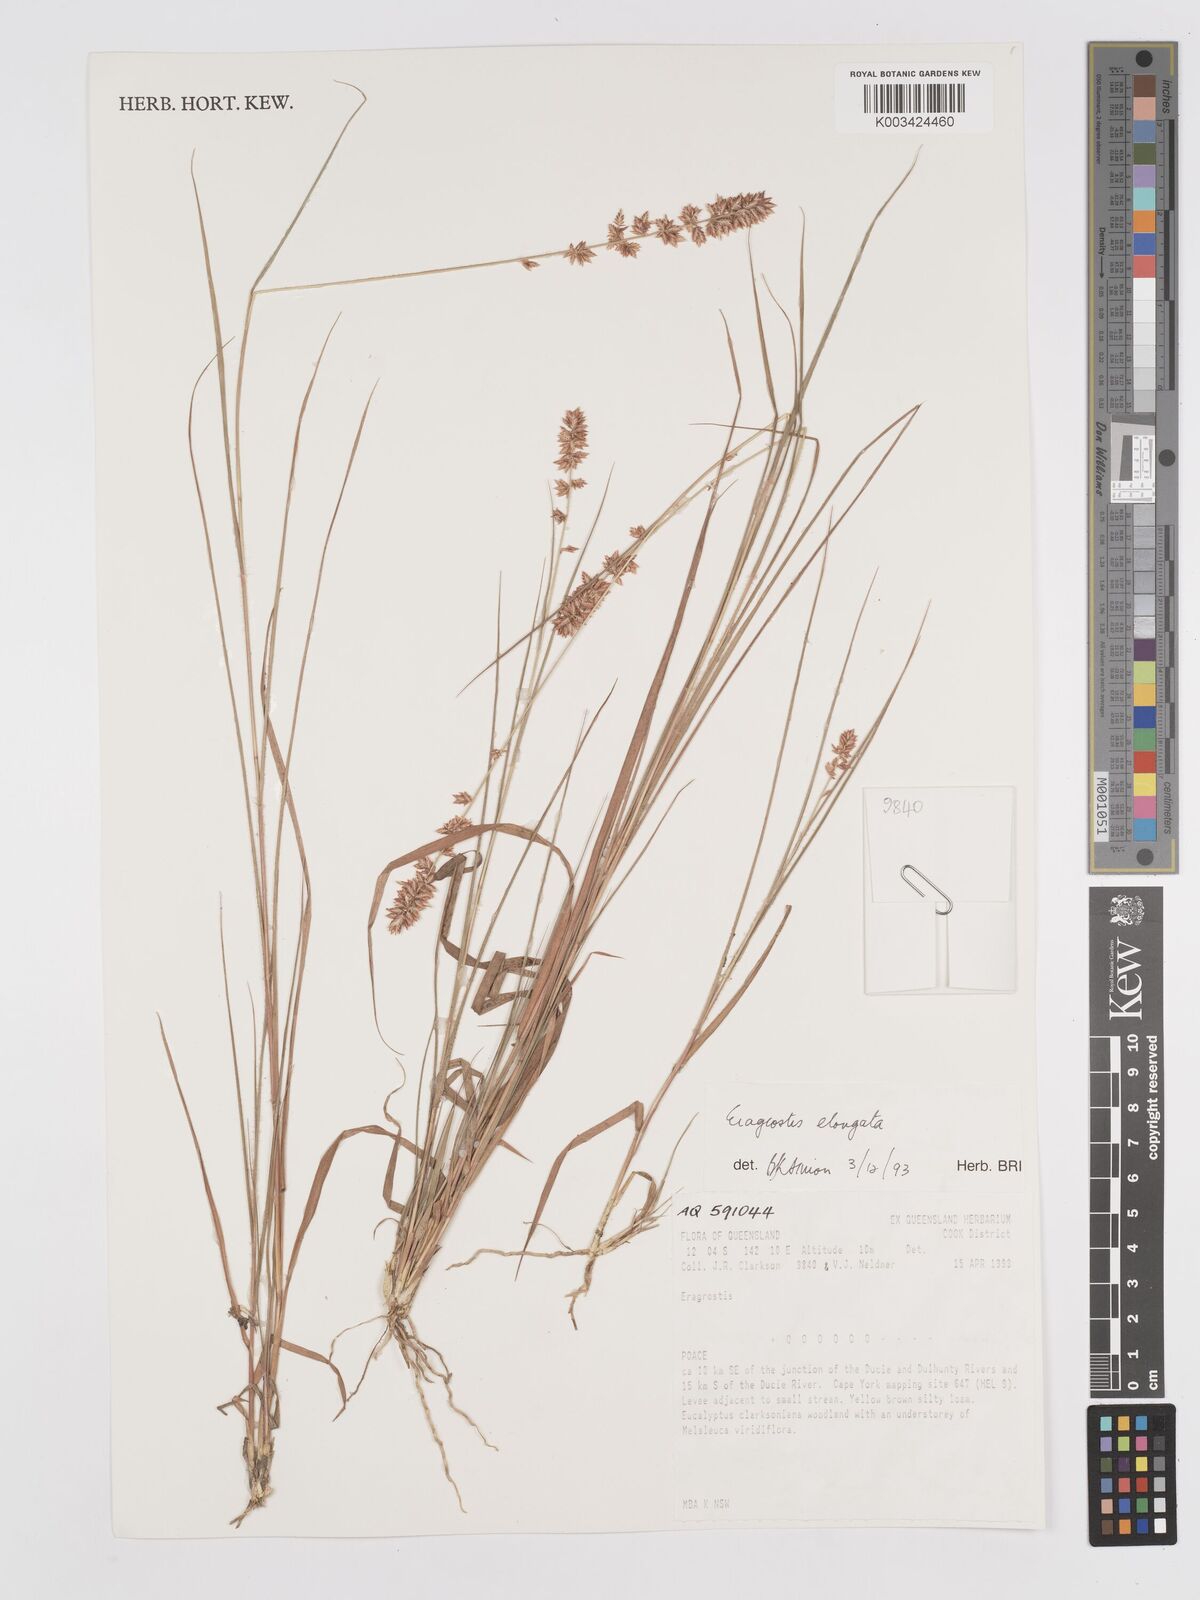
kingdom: Plantae
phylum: Tracheophyta
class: Liliopsida
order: Poales
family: Poaceae
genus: Eragrostis
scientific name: Eragrostis elongata
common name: Long lovegrass
